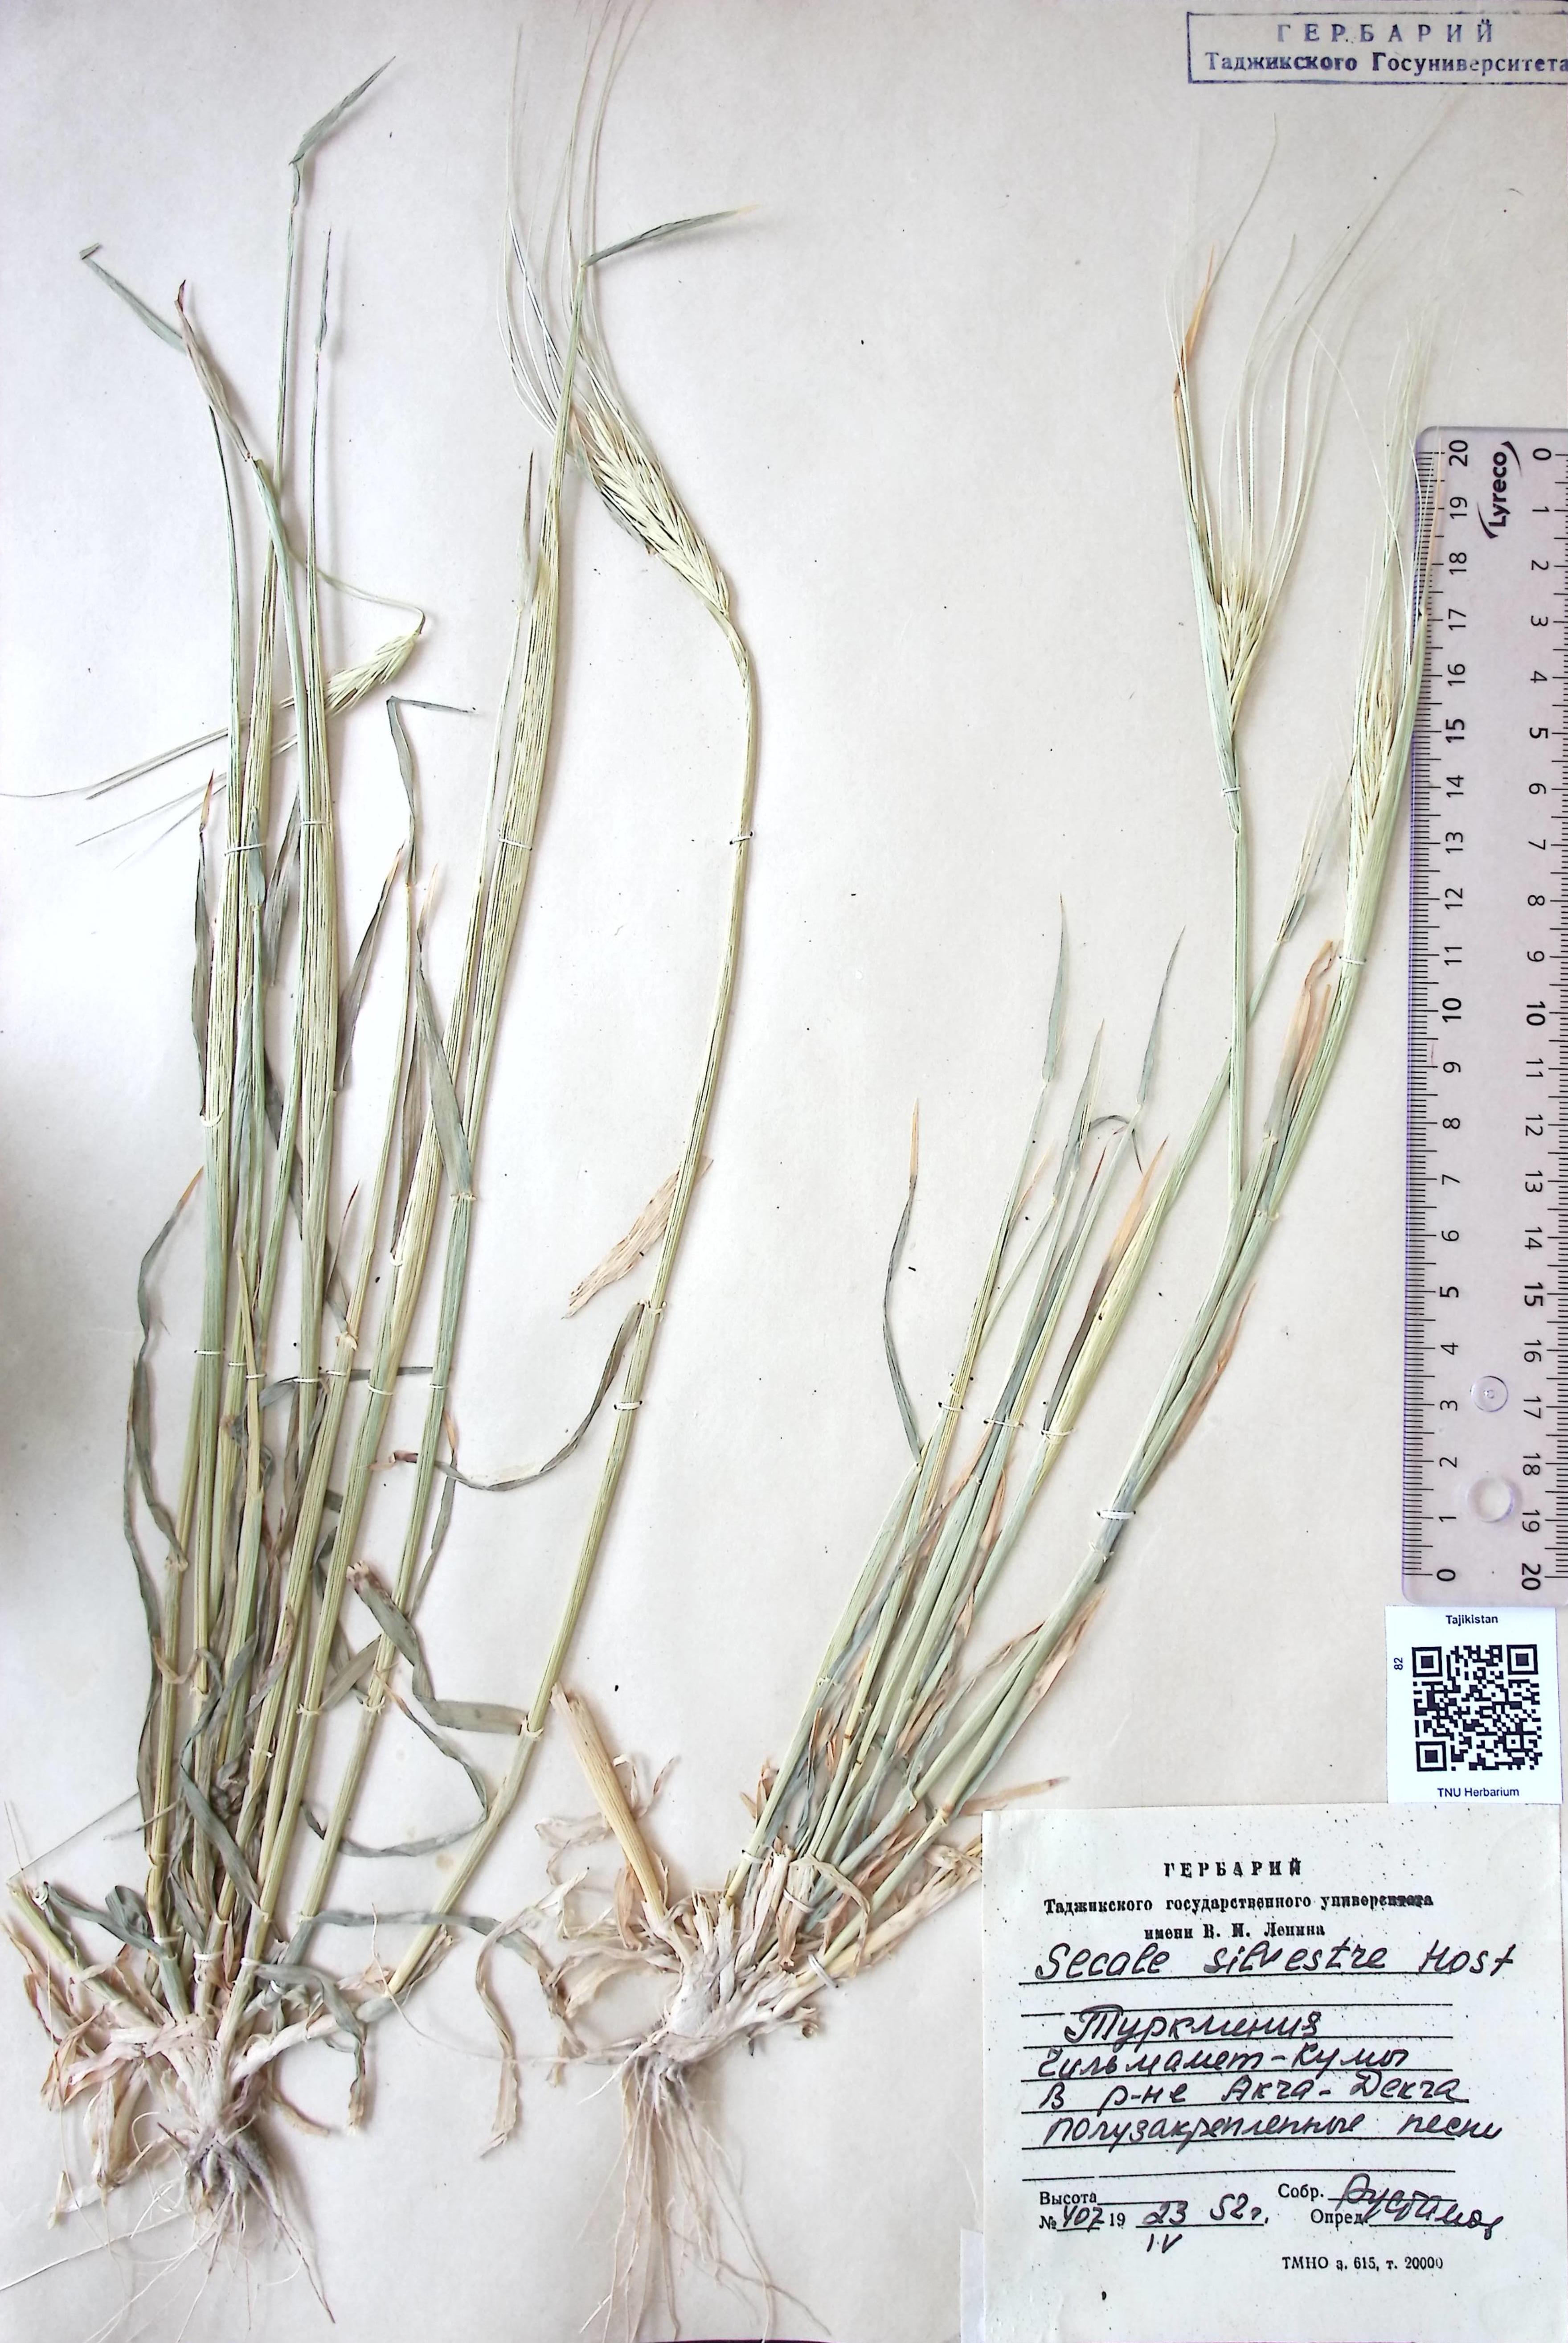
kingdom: Plantae
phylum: Tracheophyta
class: Liliopsida
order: Poales
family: Poaceae
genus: Secale
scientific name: Secale sylvestre
